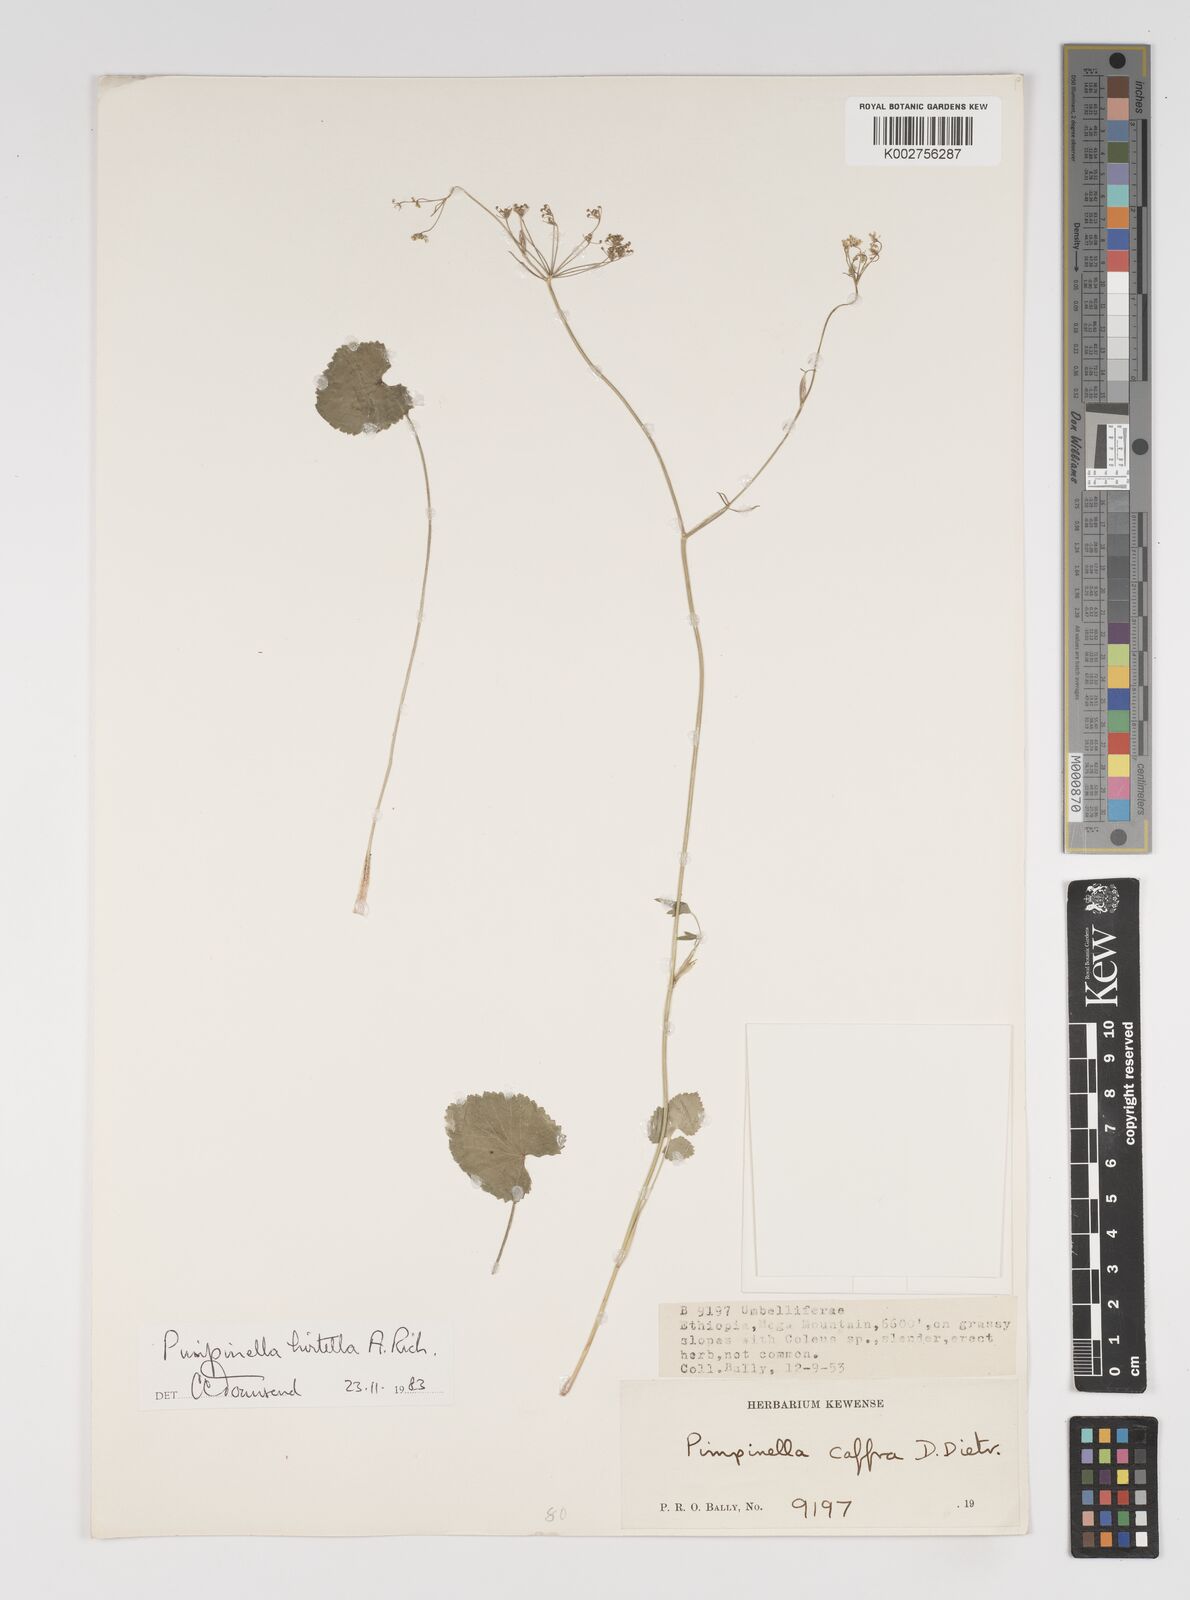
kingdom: Plantae
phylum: Tracheophyta
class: Magnoliopsida
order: Apiales
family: Apiaceae
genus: Pimpinella
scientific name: Pimpinella hirtella
